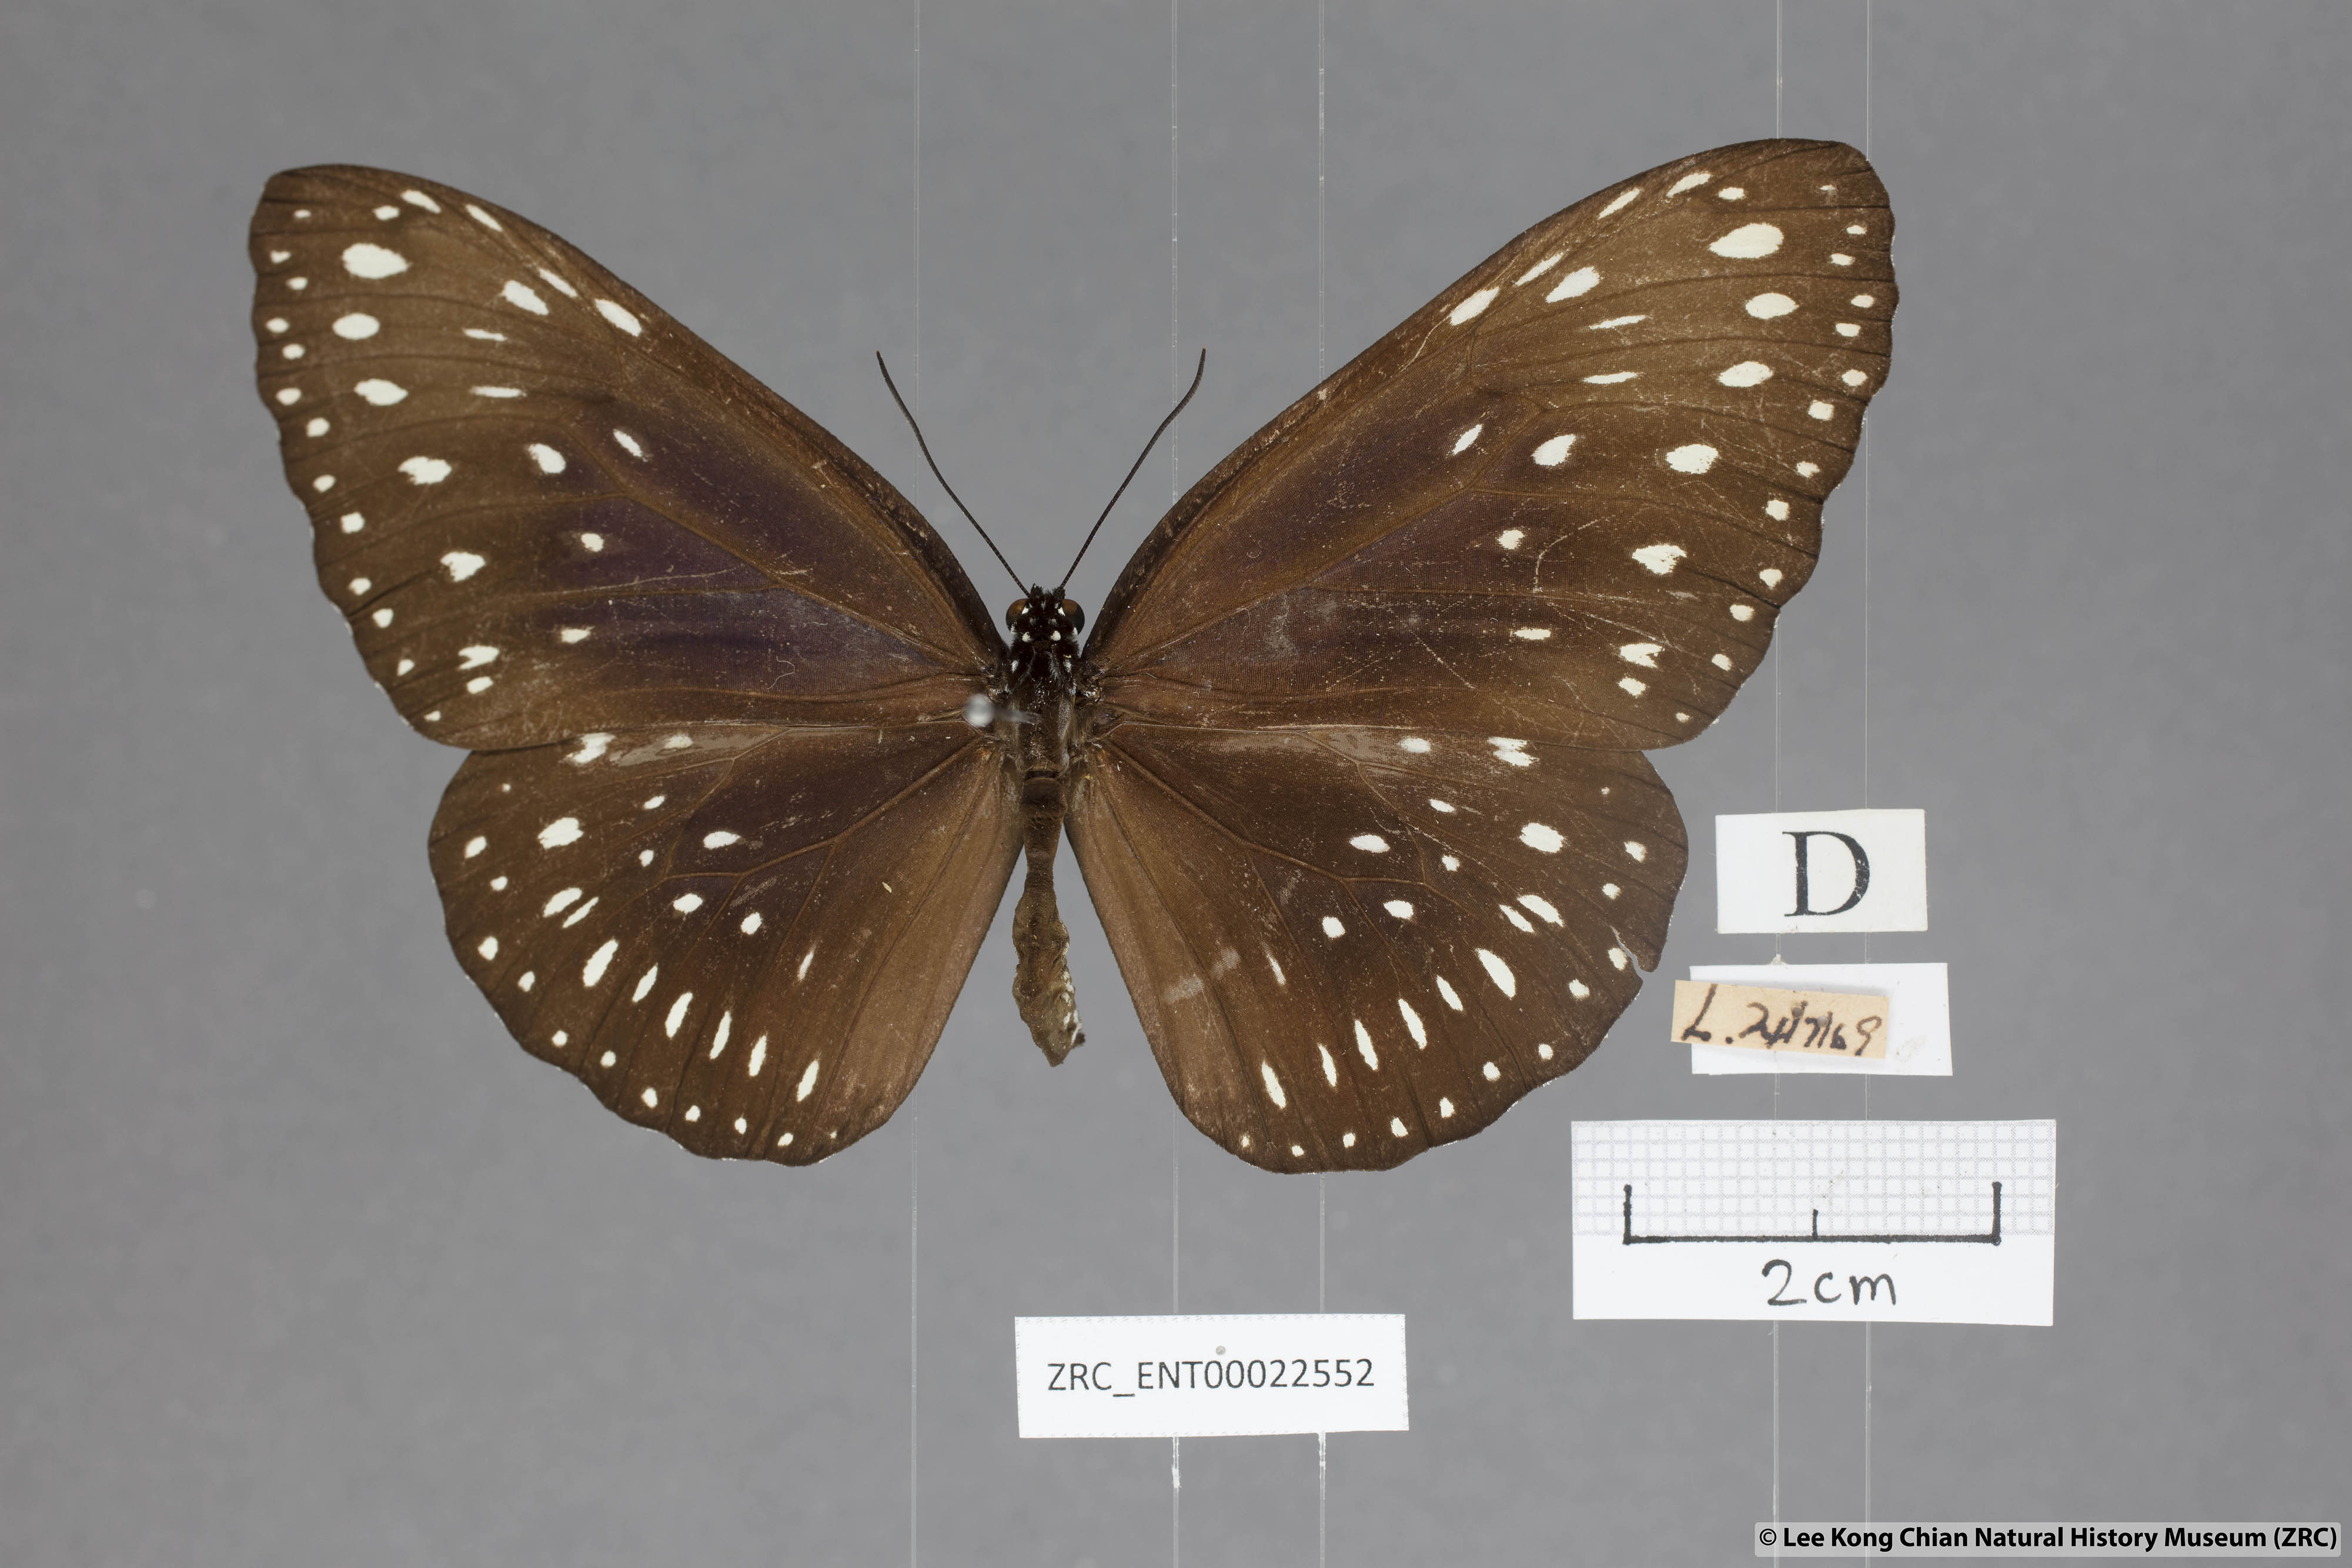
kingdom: Animalia
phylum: Arthropoda
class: Insecta
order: Lepidoptera
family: Nymphalidae
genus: Euploea
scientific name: Euploea camaralzeman
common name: Malayan crow butterfly
